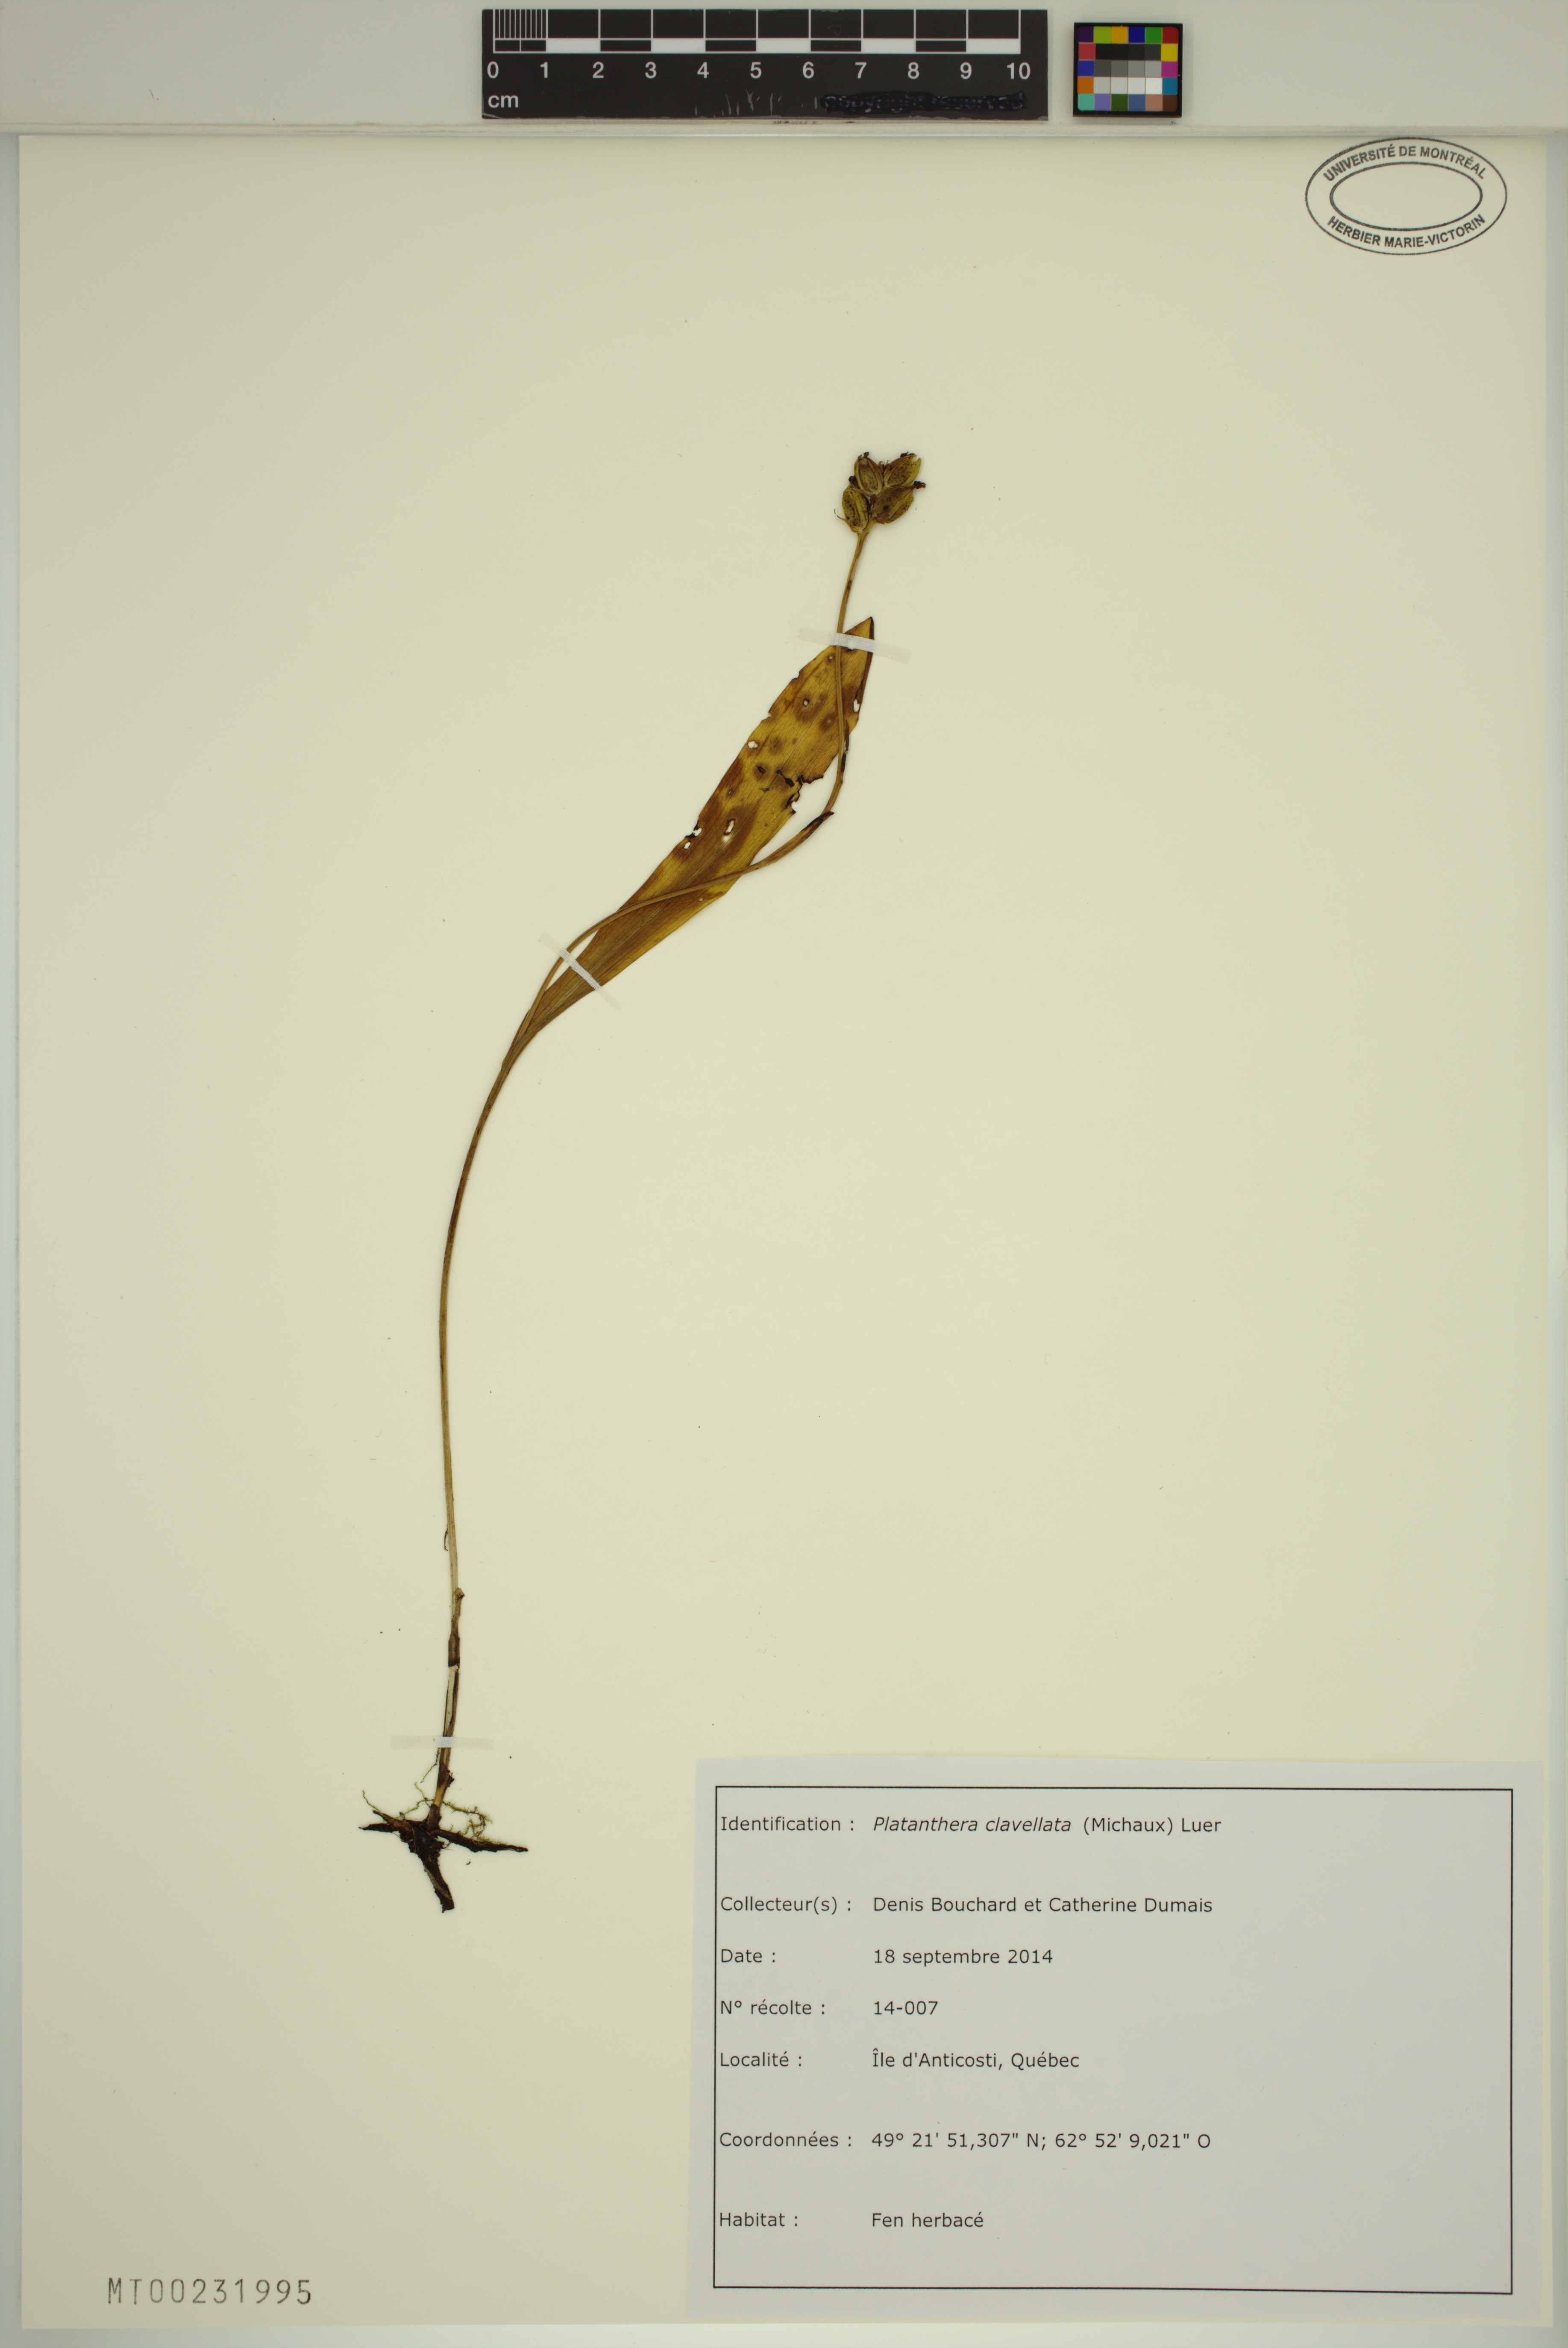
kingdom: Plantae
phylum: Tracheophyta
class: Liliopsida
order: Asparagales
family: Orchidaceae
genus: Platanthera
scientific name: Platanthera clavellata
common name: Club-spur orchid
